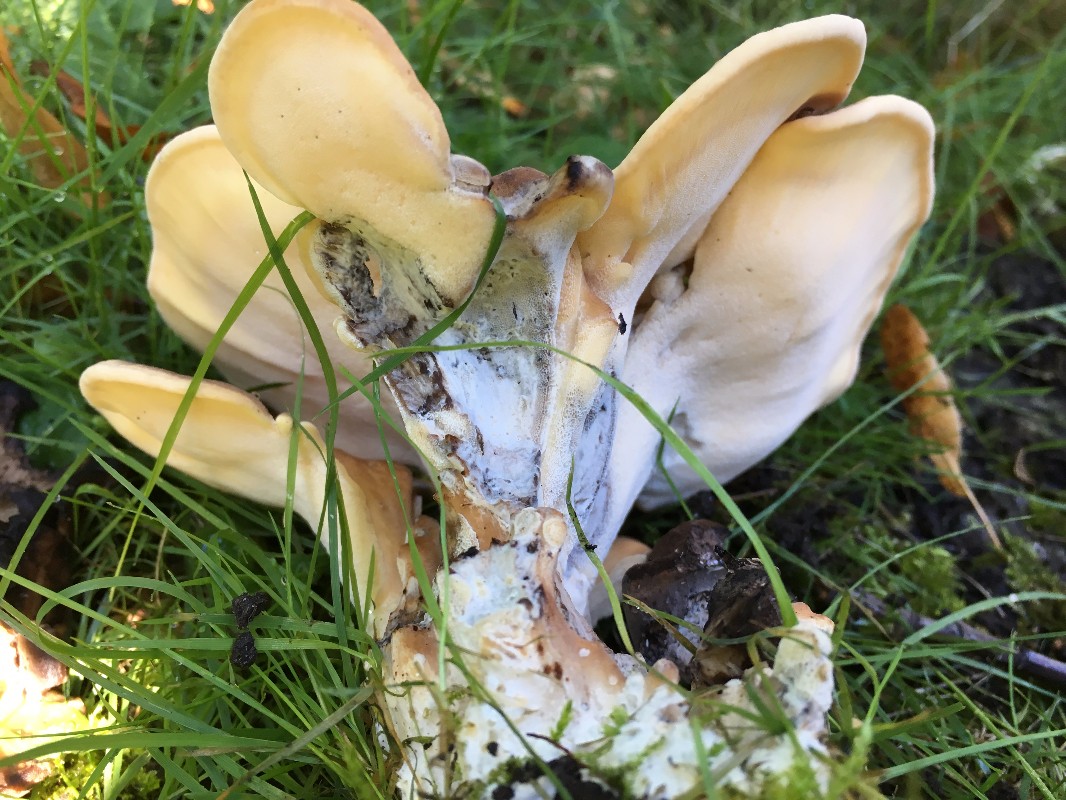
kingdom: Fungi
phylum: Basidiomycota
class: Agaricomycetes
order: Polyporales
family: Meripilaceae
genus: Meripilus
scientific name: Meripilus giganteus
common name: kæmpeporesvamp
